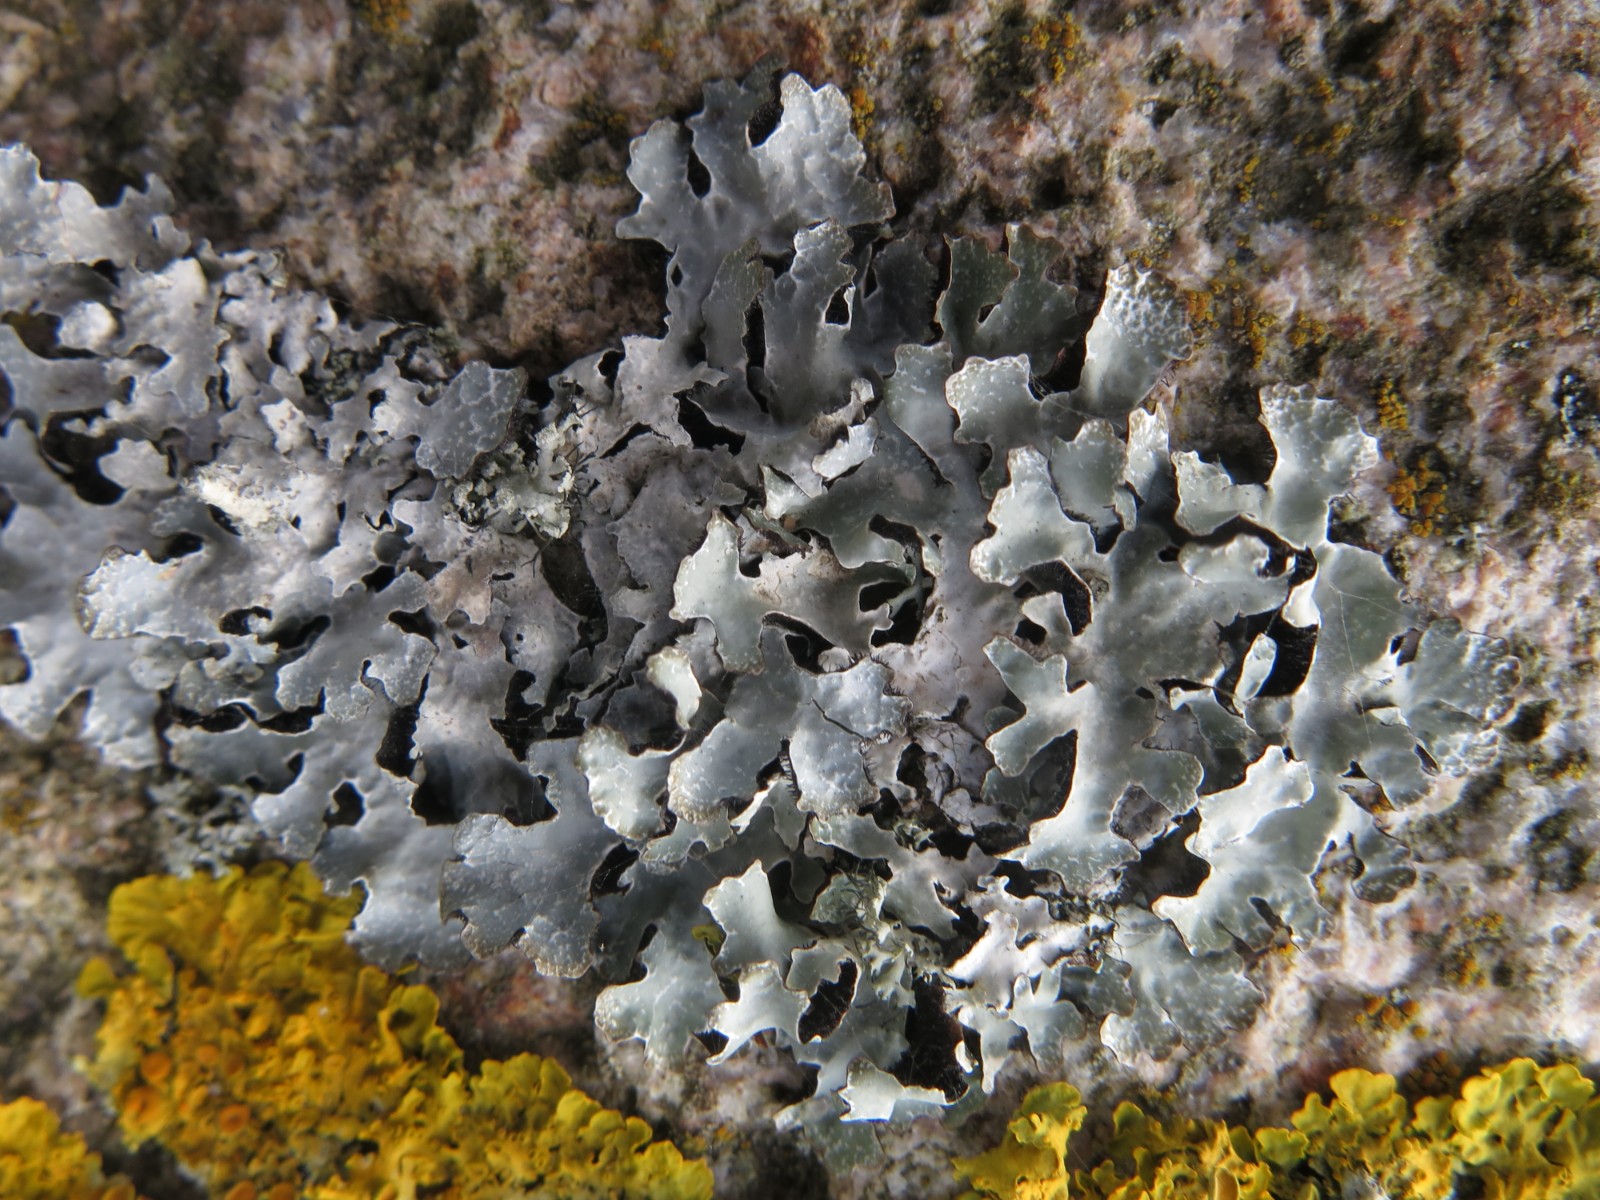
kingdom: Fungi
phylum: Ascomycota
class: Lecanoromycetes
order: Lecanorales
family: Parmeliaceae
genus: Parmelia
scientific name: Parmelia sulcata
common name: rynket skållav
